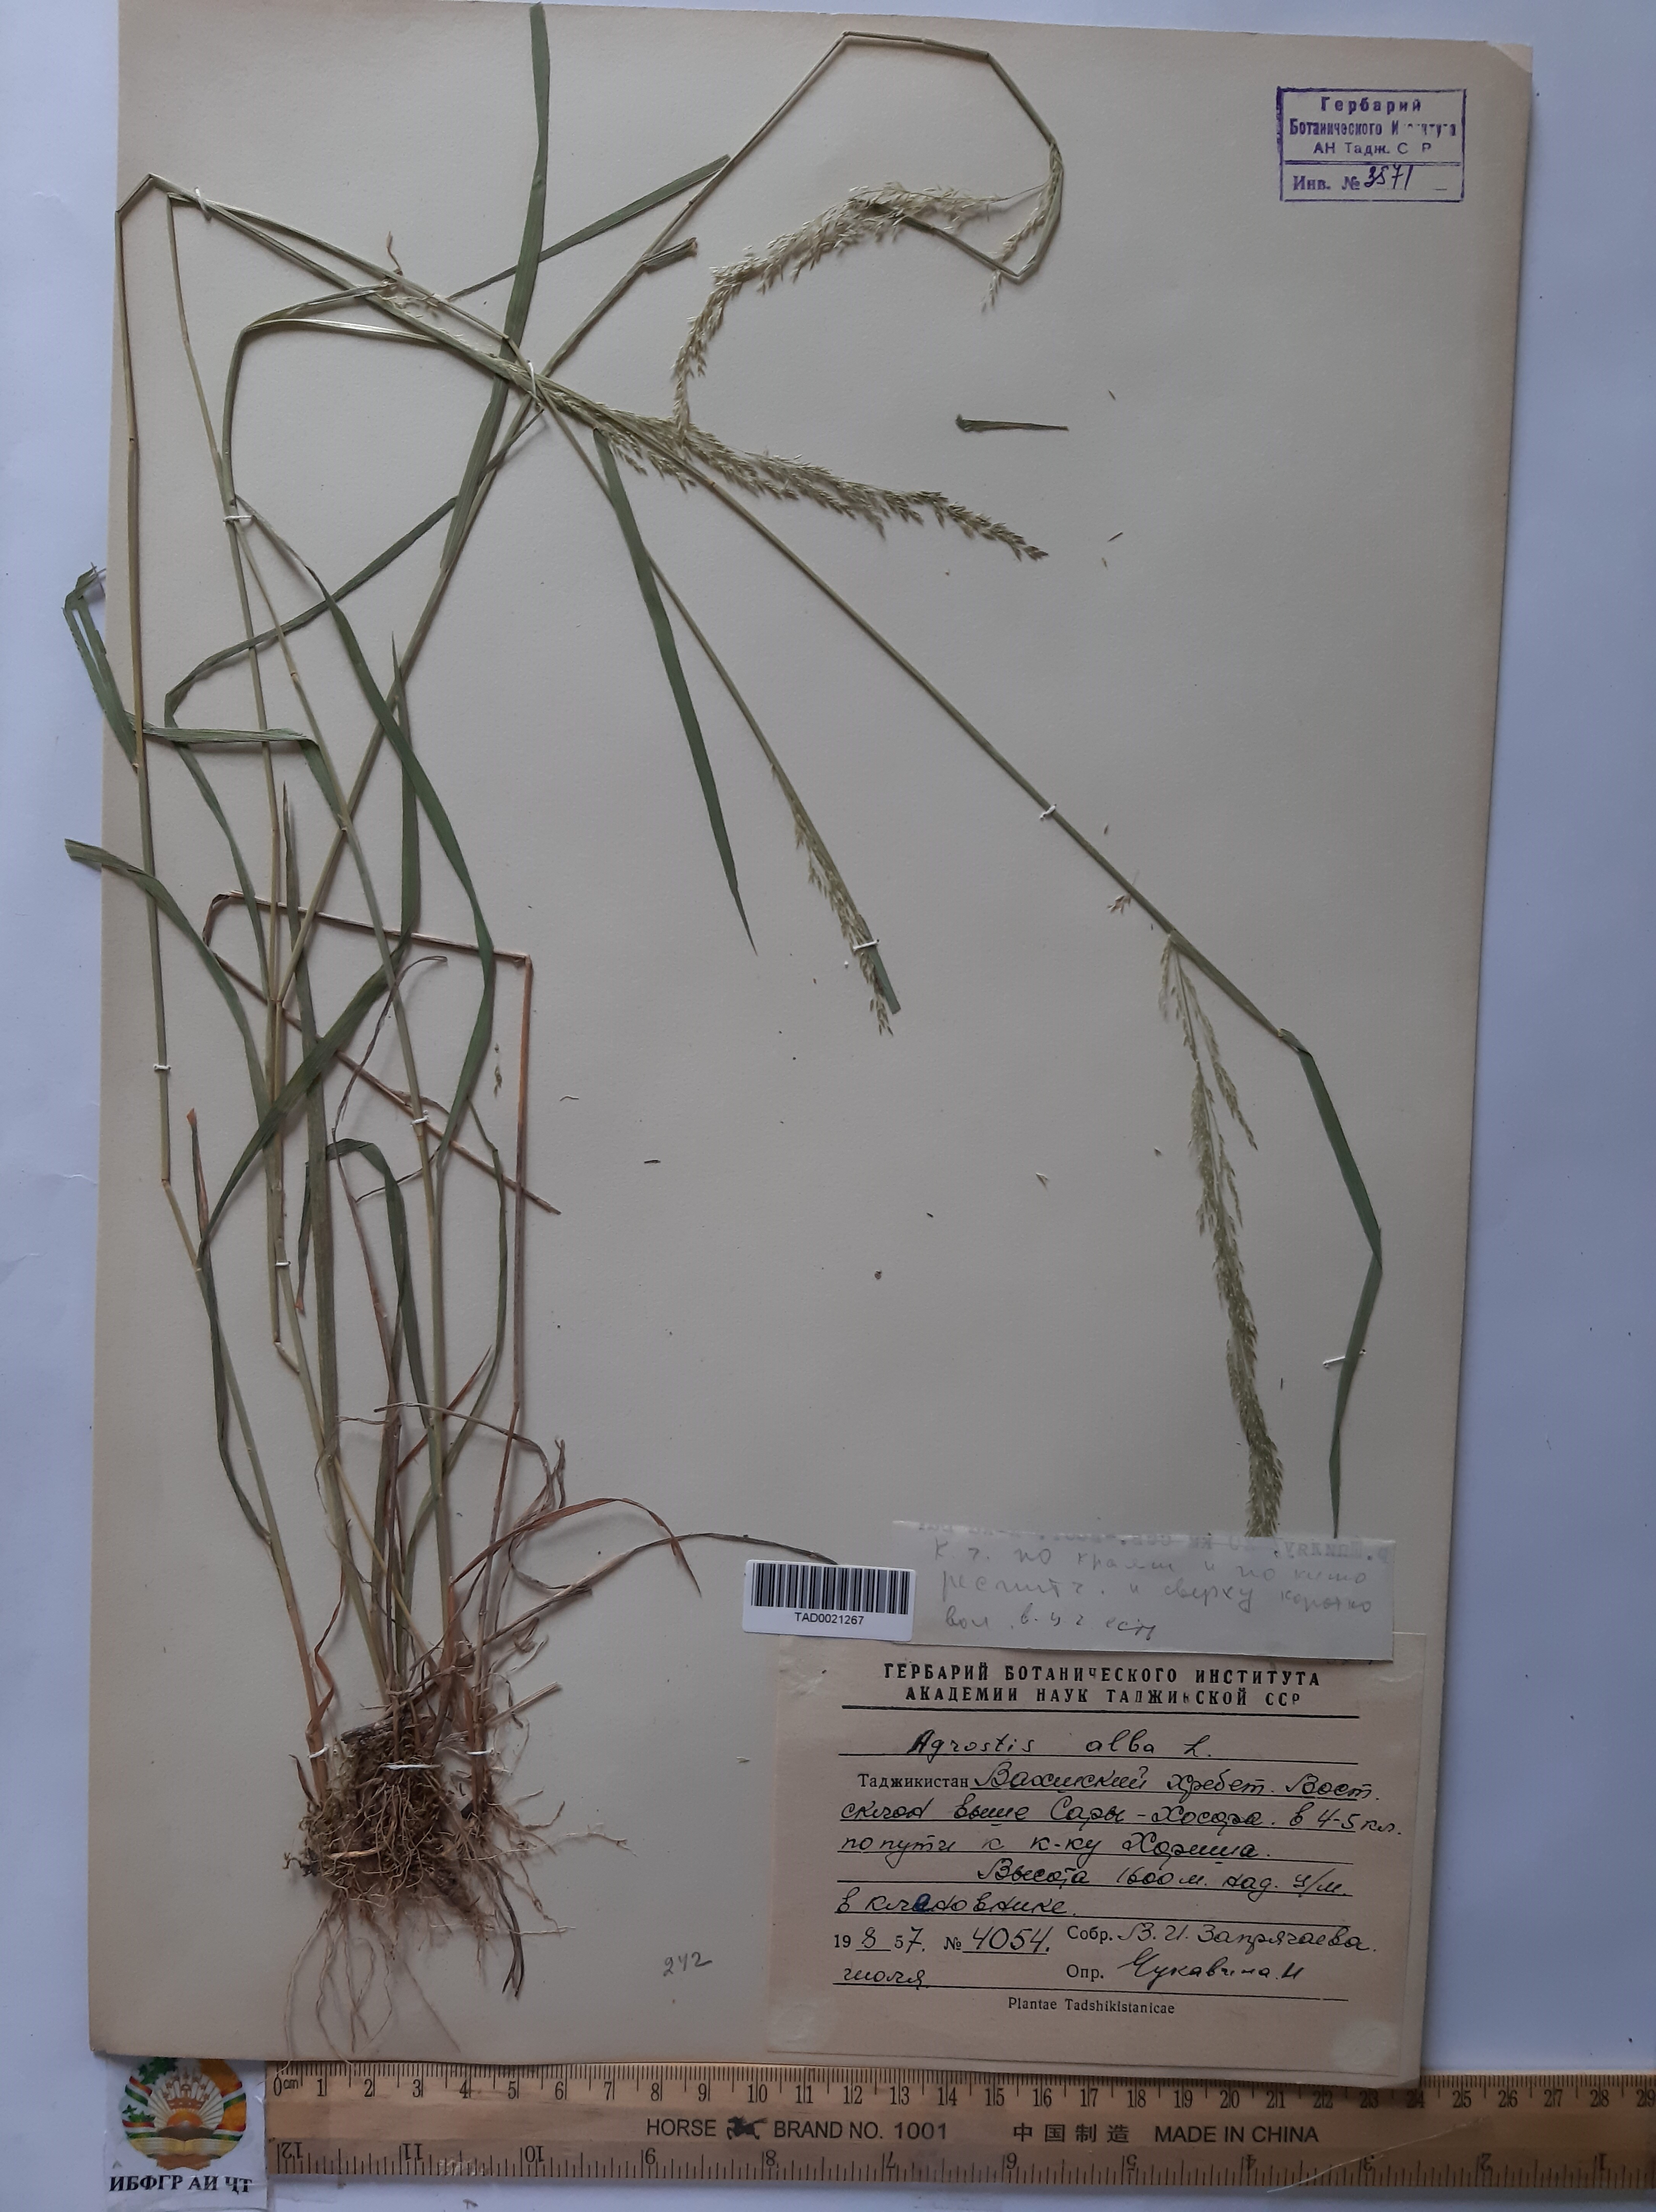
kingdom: Plantae
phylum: Tracheophyta
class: Liliopsida
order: Poales
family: Poaceae
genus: Poa
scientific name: Poa nemoralis
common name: Wood bluegrass
